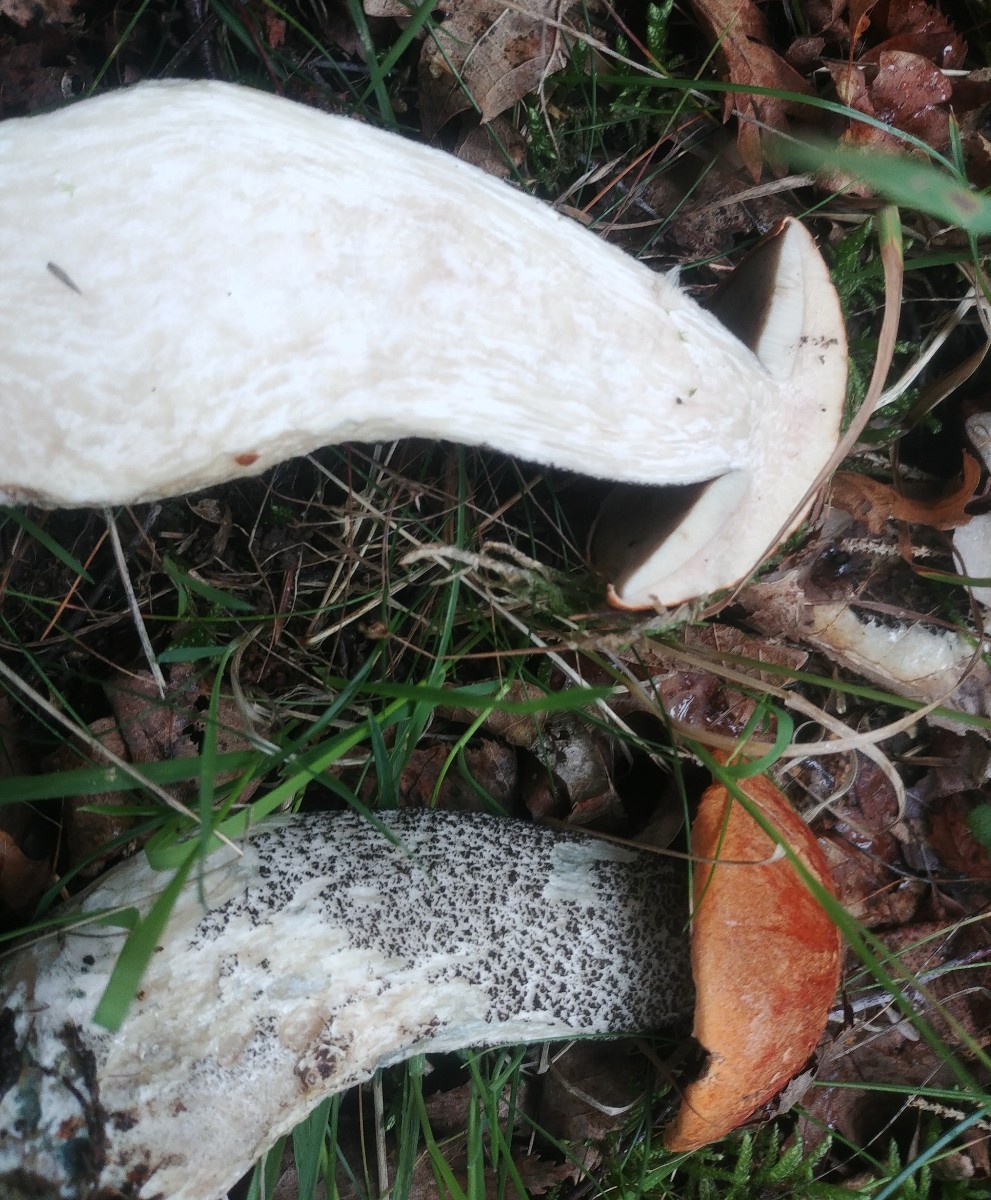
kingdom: Fungi
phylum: Basidiomycota
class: Agaricomycetes
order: Boletales
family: Boletaceae
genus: Leccinum
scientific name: Leccinum versipelle
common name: orange skælrørhat
